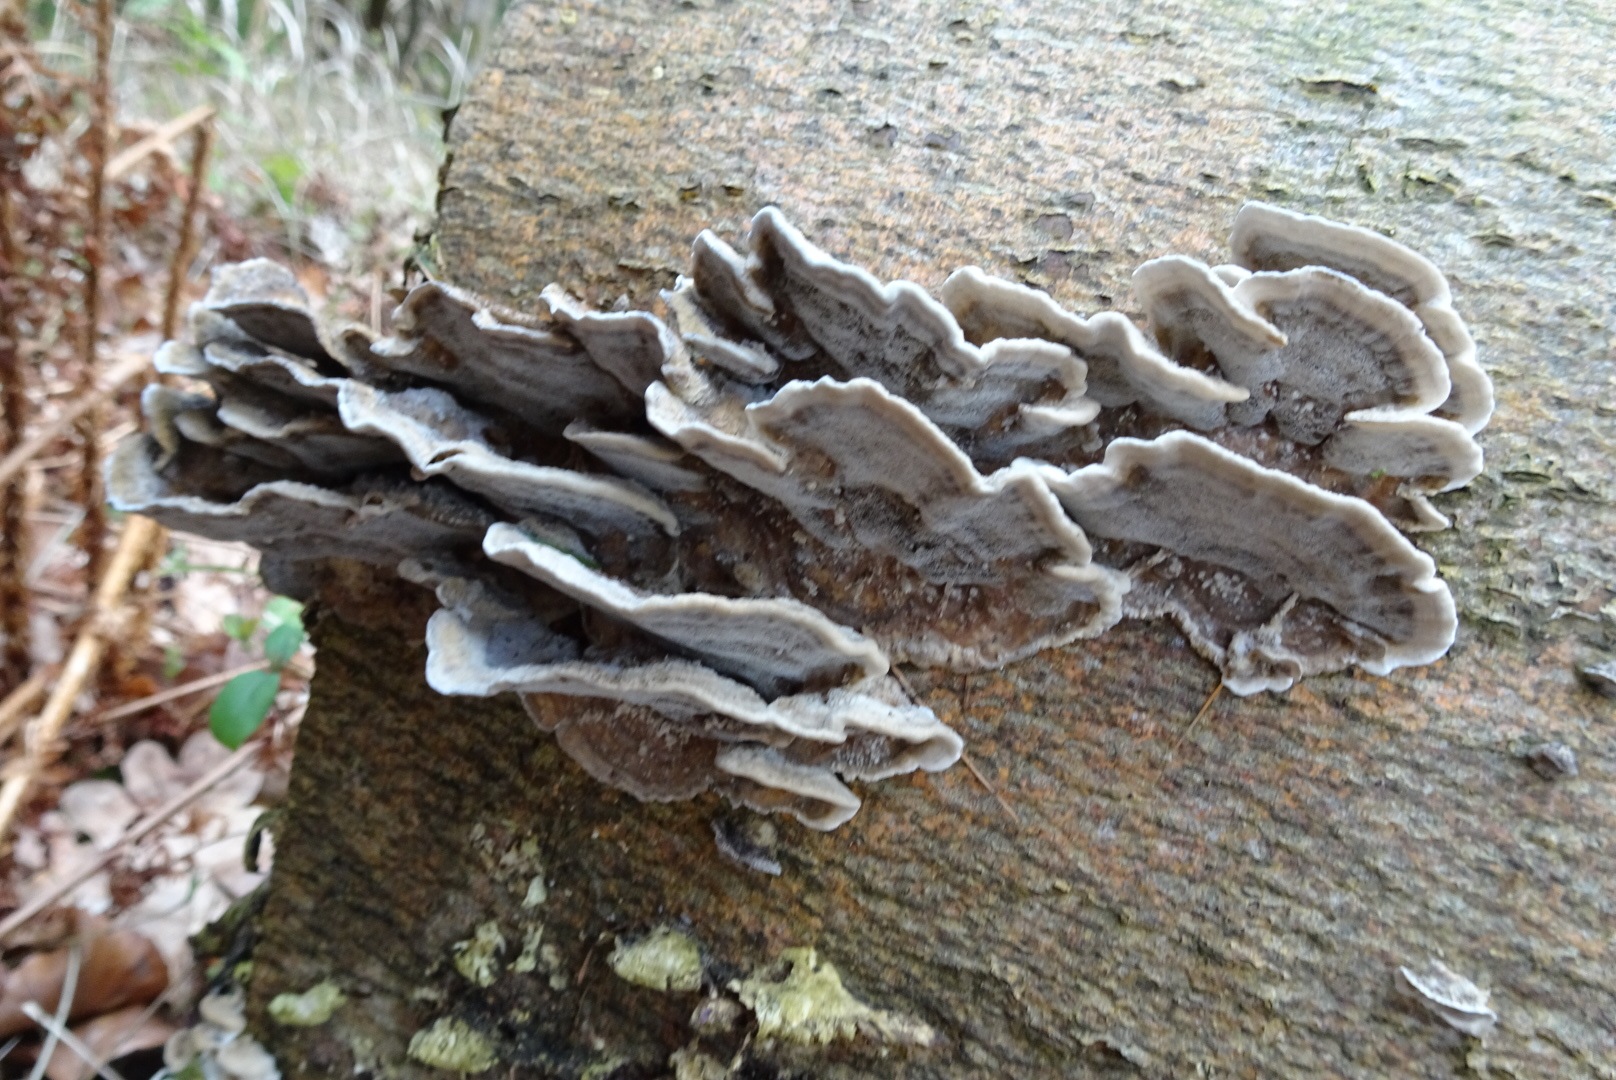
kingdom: Fungi
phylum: Basidiomycota
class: Agaricomycetes
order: Polyporales
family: Phanerochaetaceae
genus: Bjerkandera
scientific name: Bjerkandera adusta
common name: sveden sodporesvamp
